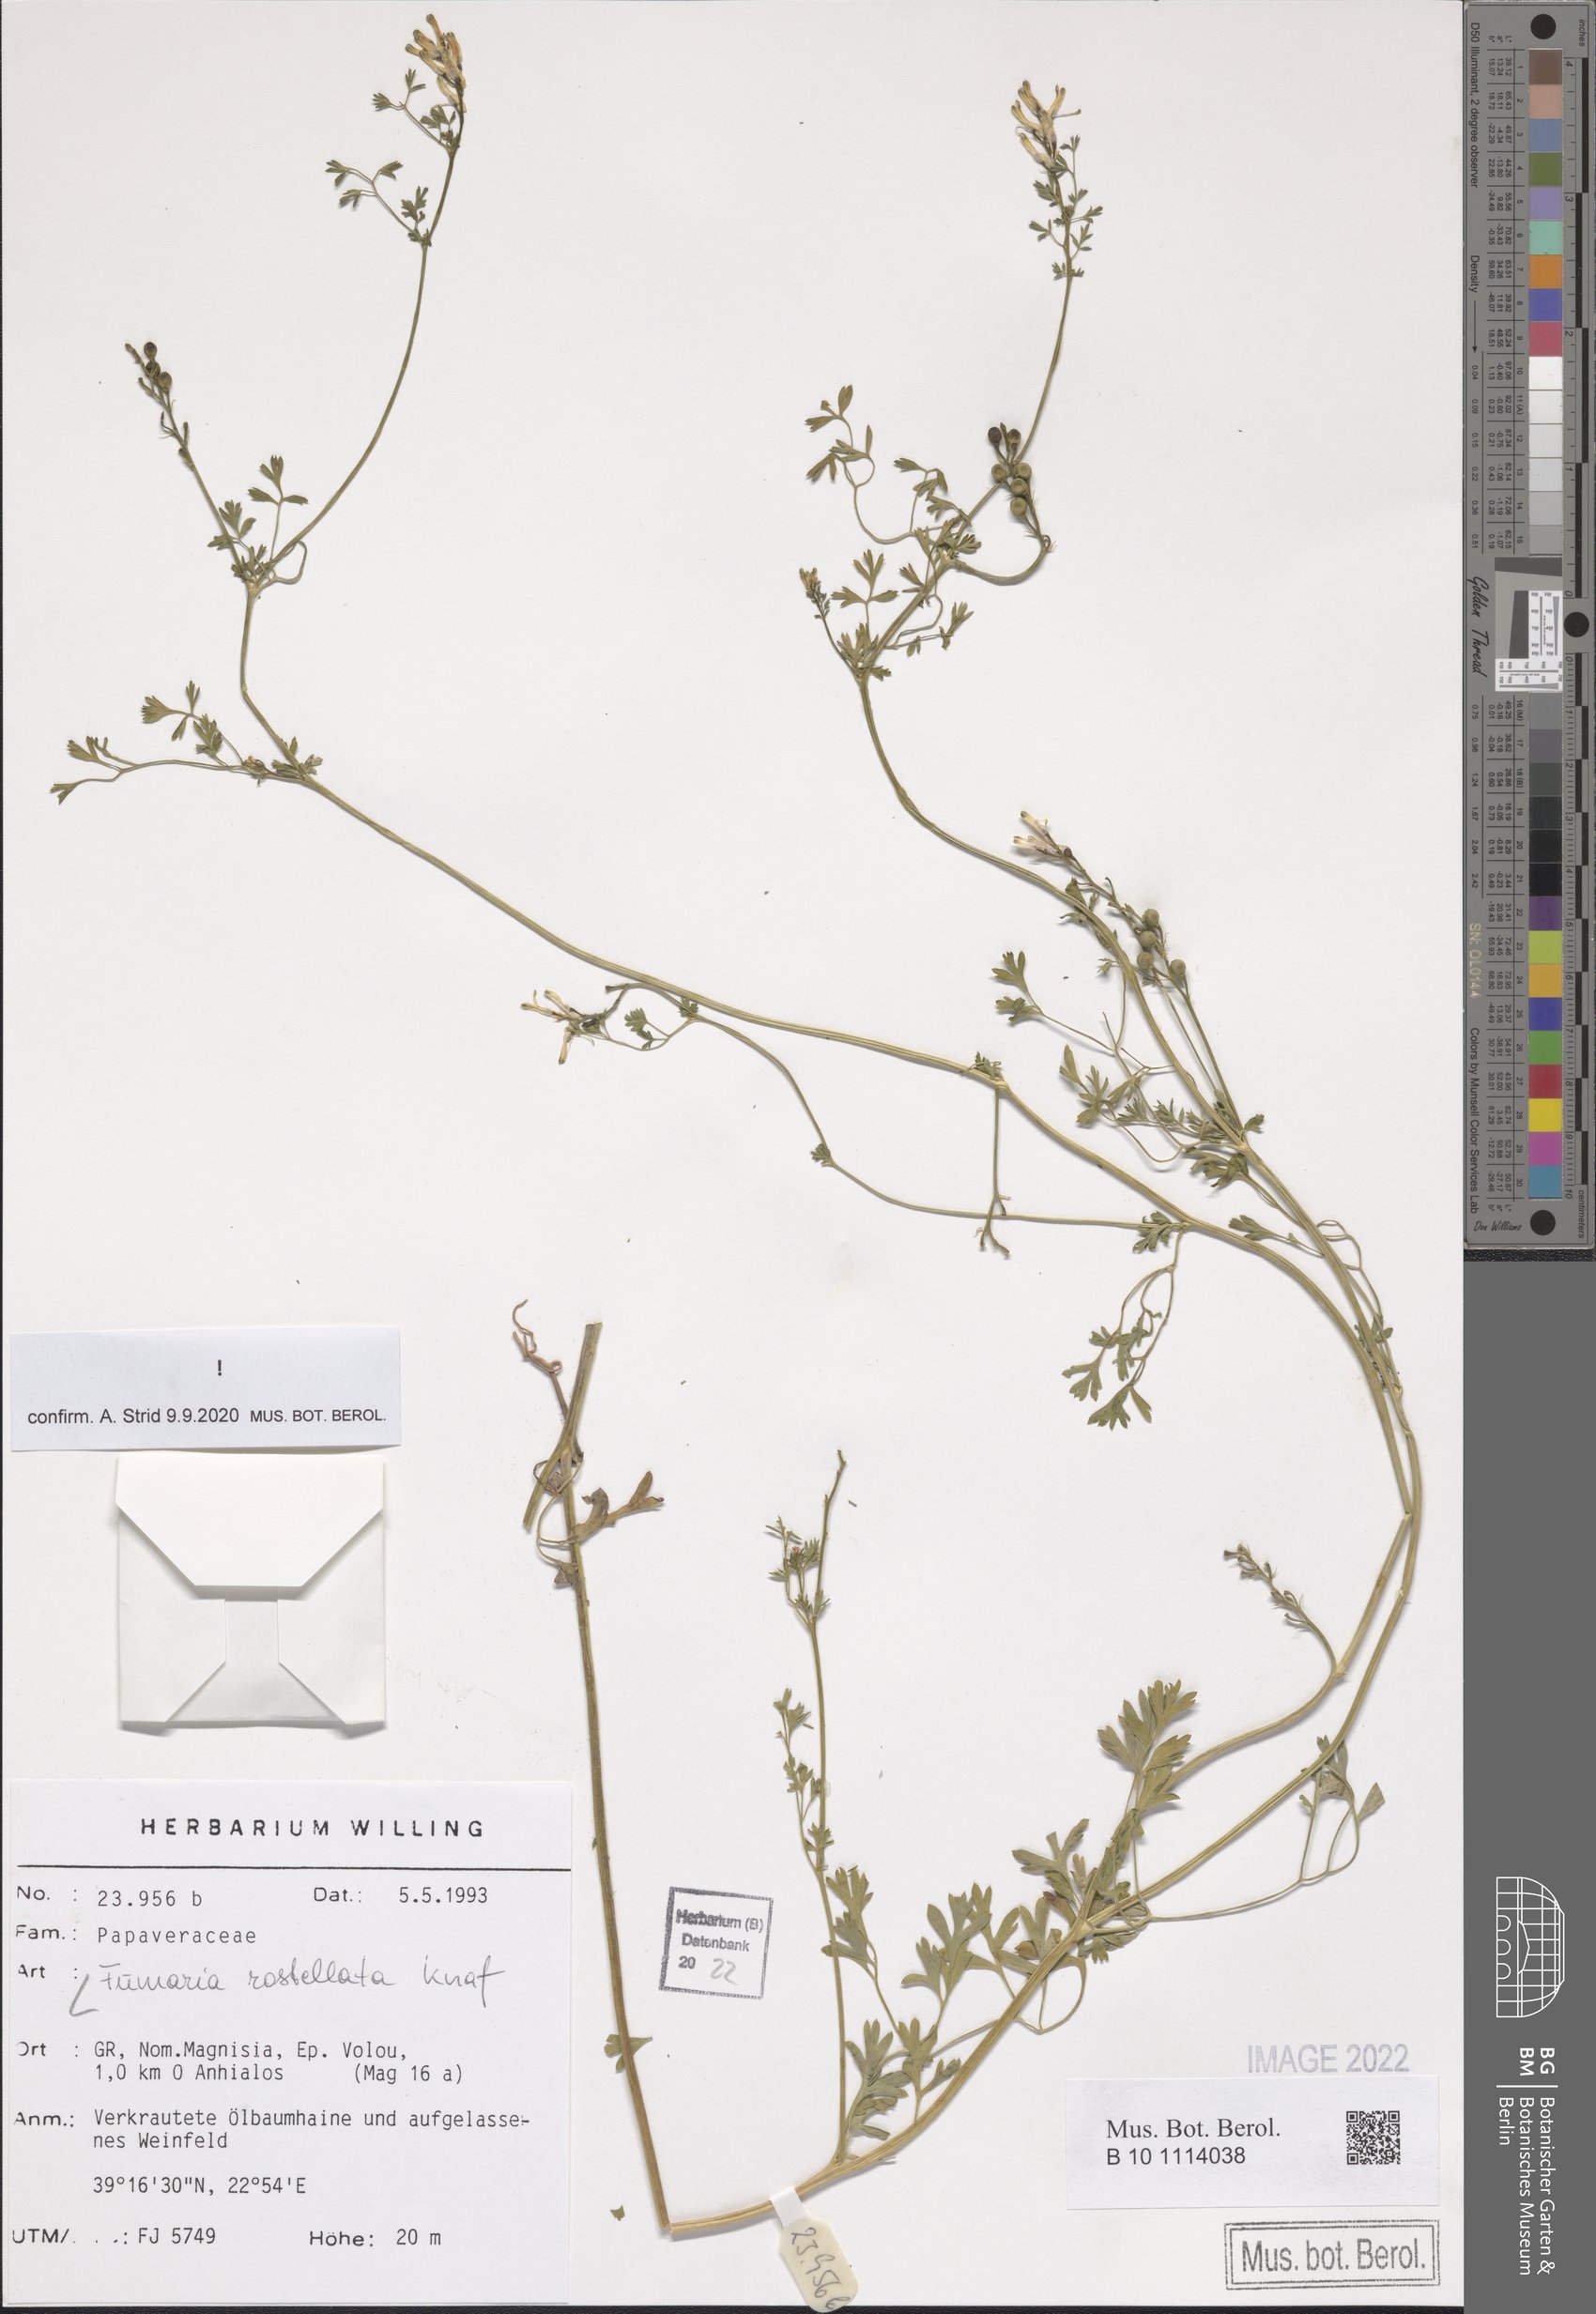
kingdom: Plantae
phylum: Tracheophyta
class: Magnoliopsida
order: Ranunculales
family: Papaveraceae
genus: Fumaria
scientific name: Fumaria rostellata
